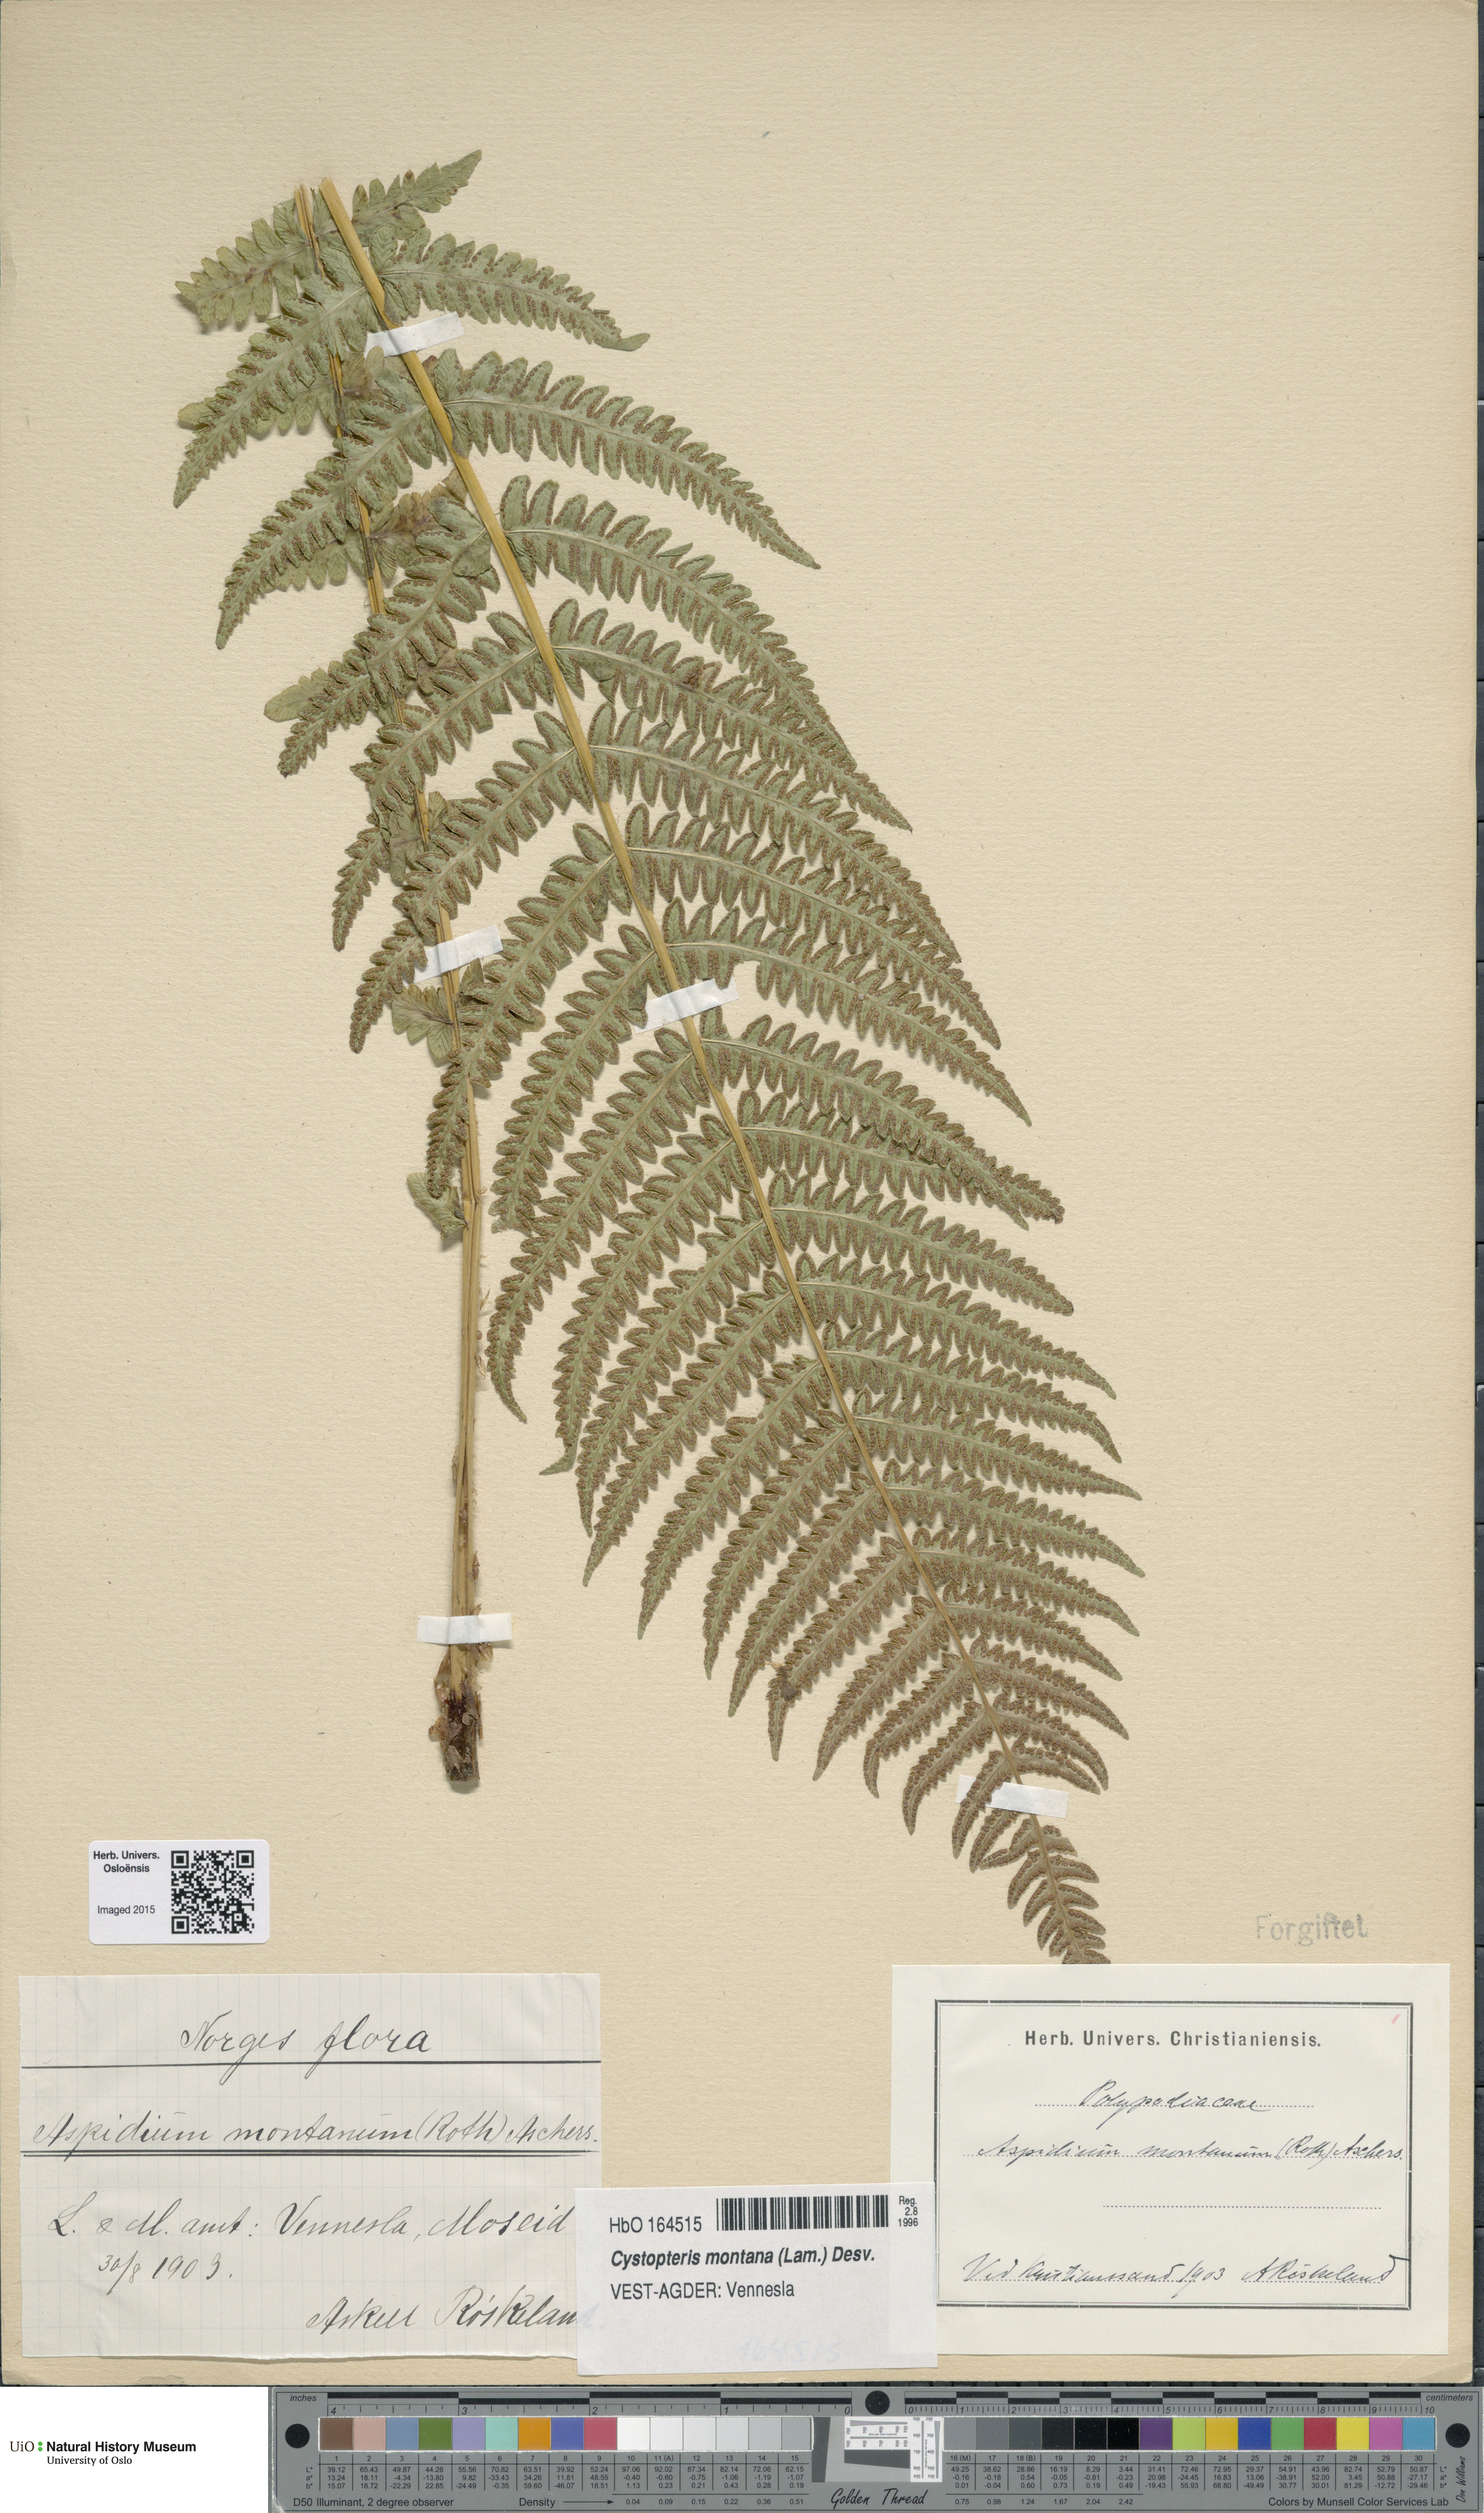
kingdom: Plantae
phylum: Tracheophyta
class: Polypodiopsida
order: Polypodiales
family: Thelypteridaceae
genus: Oreopteris
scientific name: Oreopteris limbosperma
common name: Lemon-scented fern
